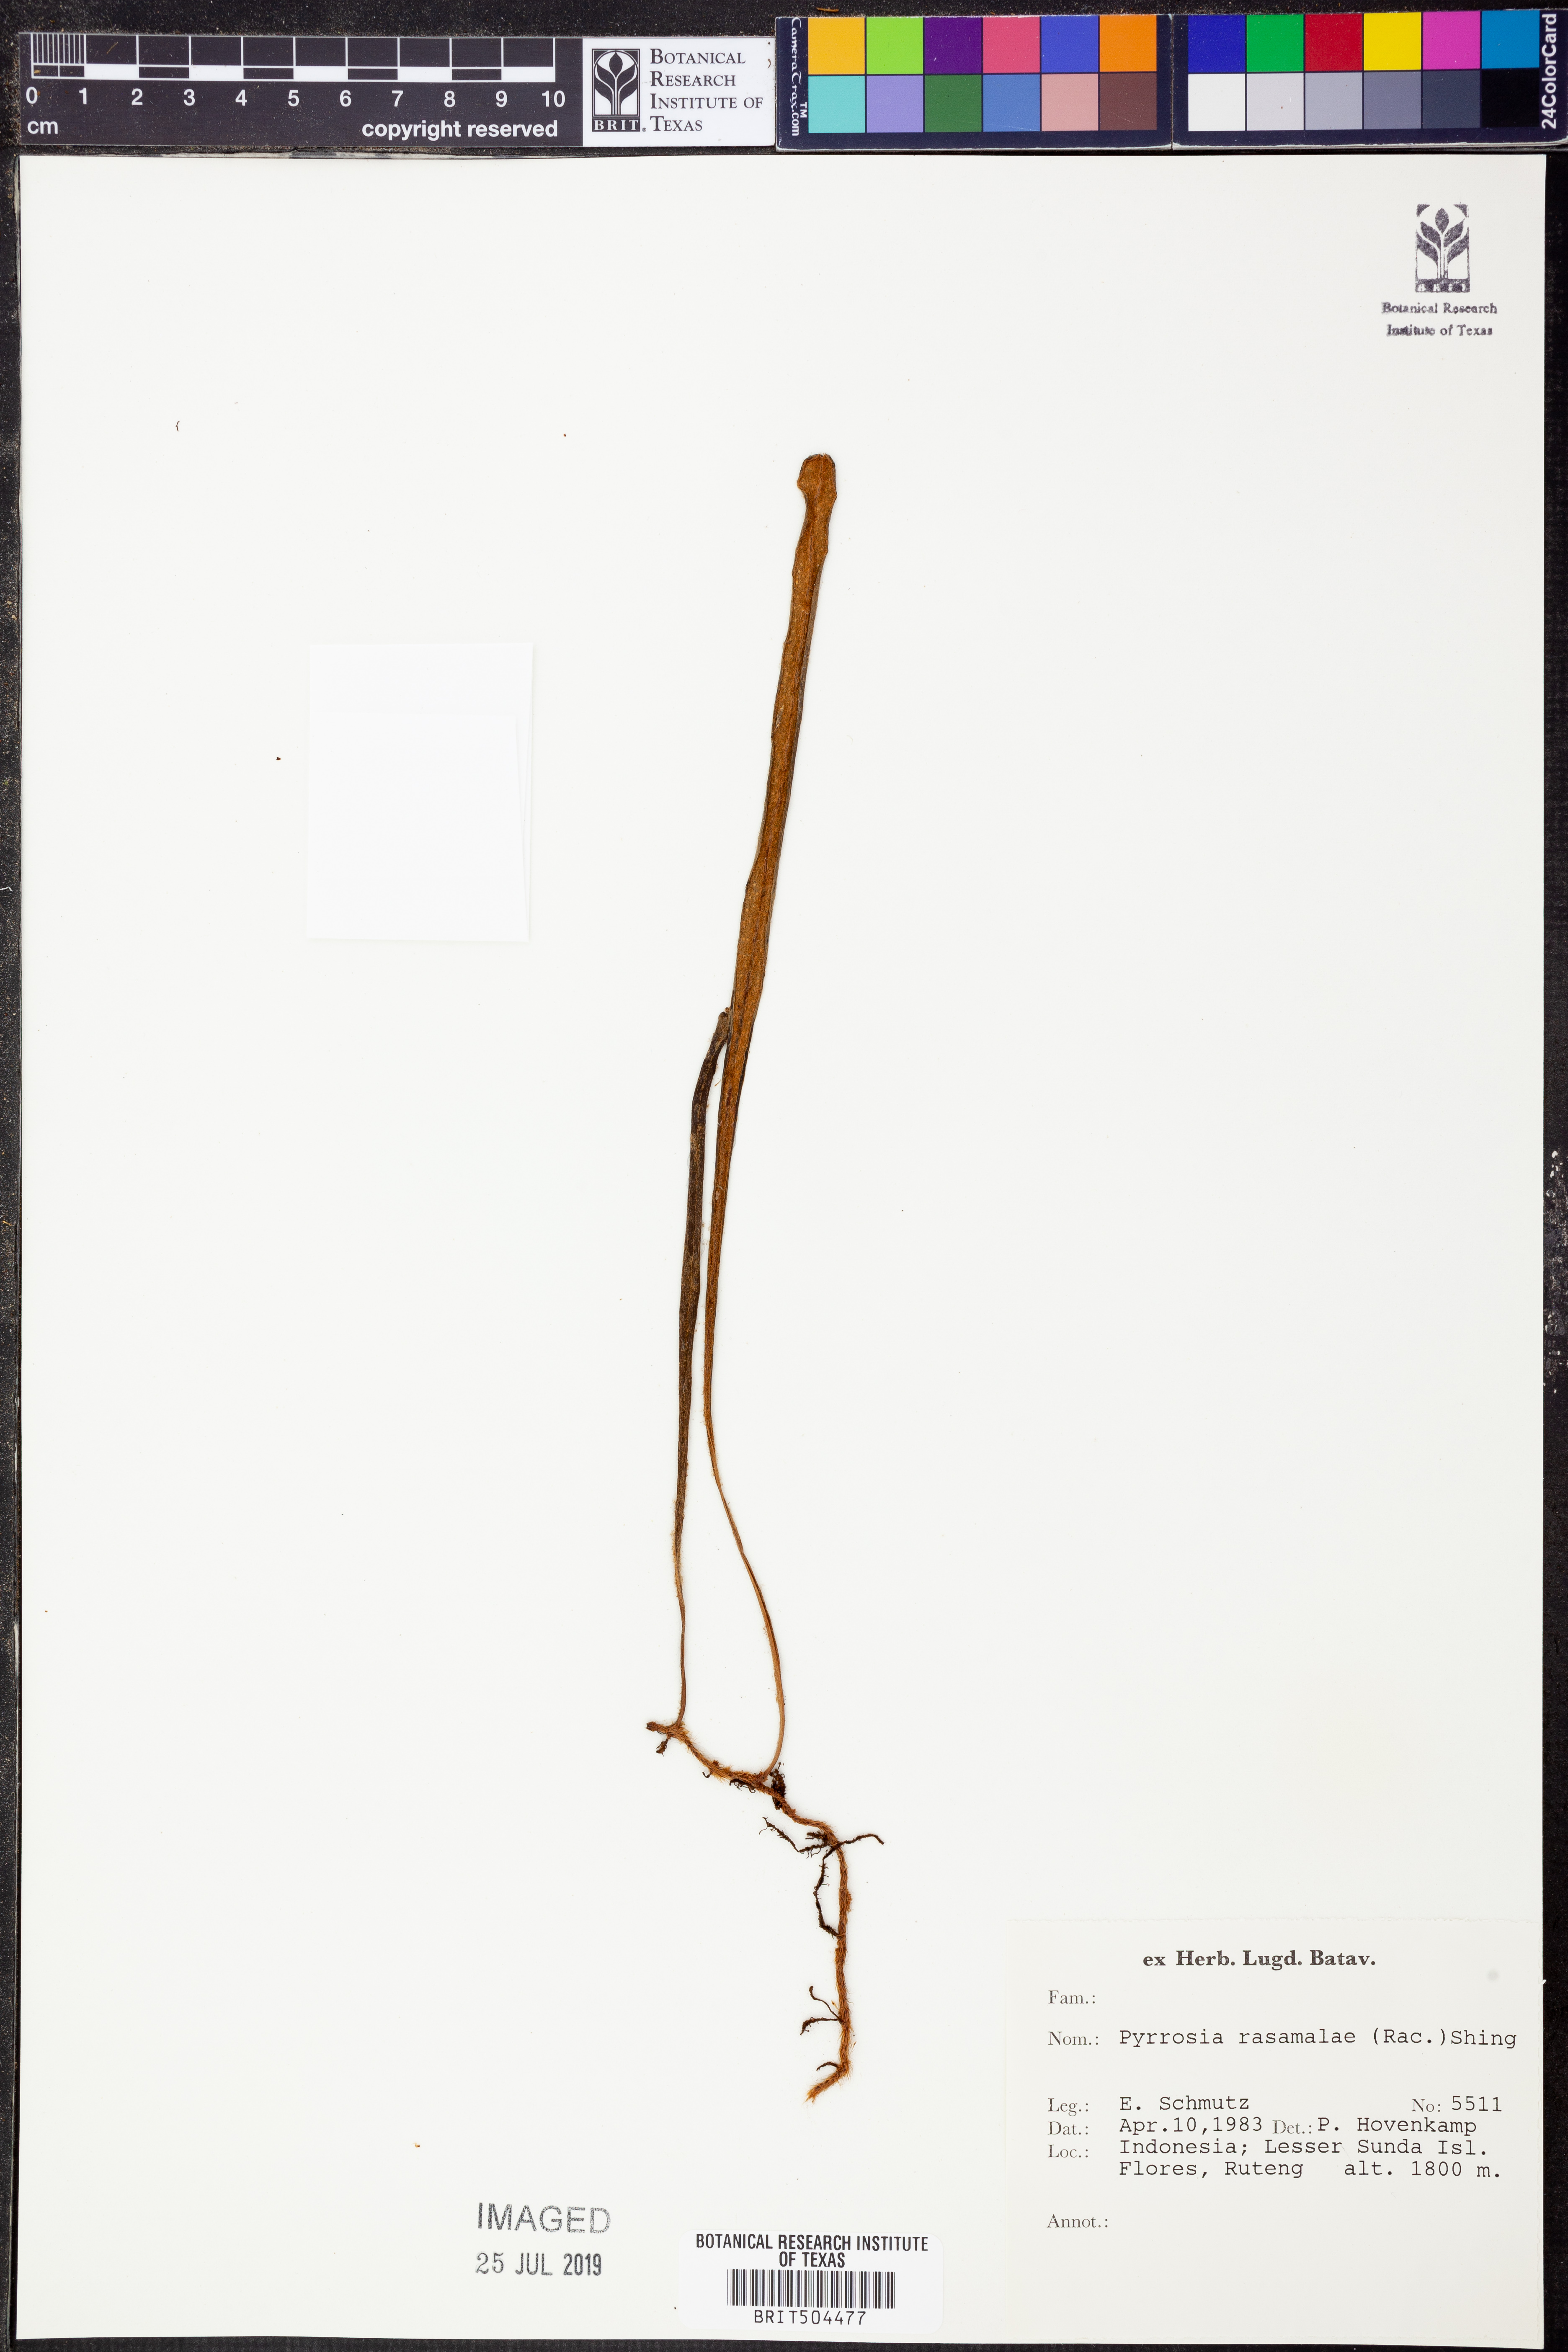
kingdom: Plantae
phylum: Tracheophyta
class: Polypodiopsida
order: Polypodiales
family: Polypodiaceae
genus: Pyrrosia
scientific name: Pyrrosia rasamalae
